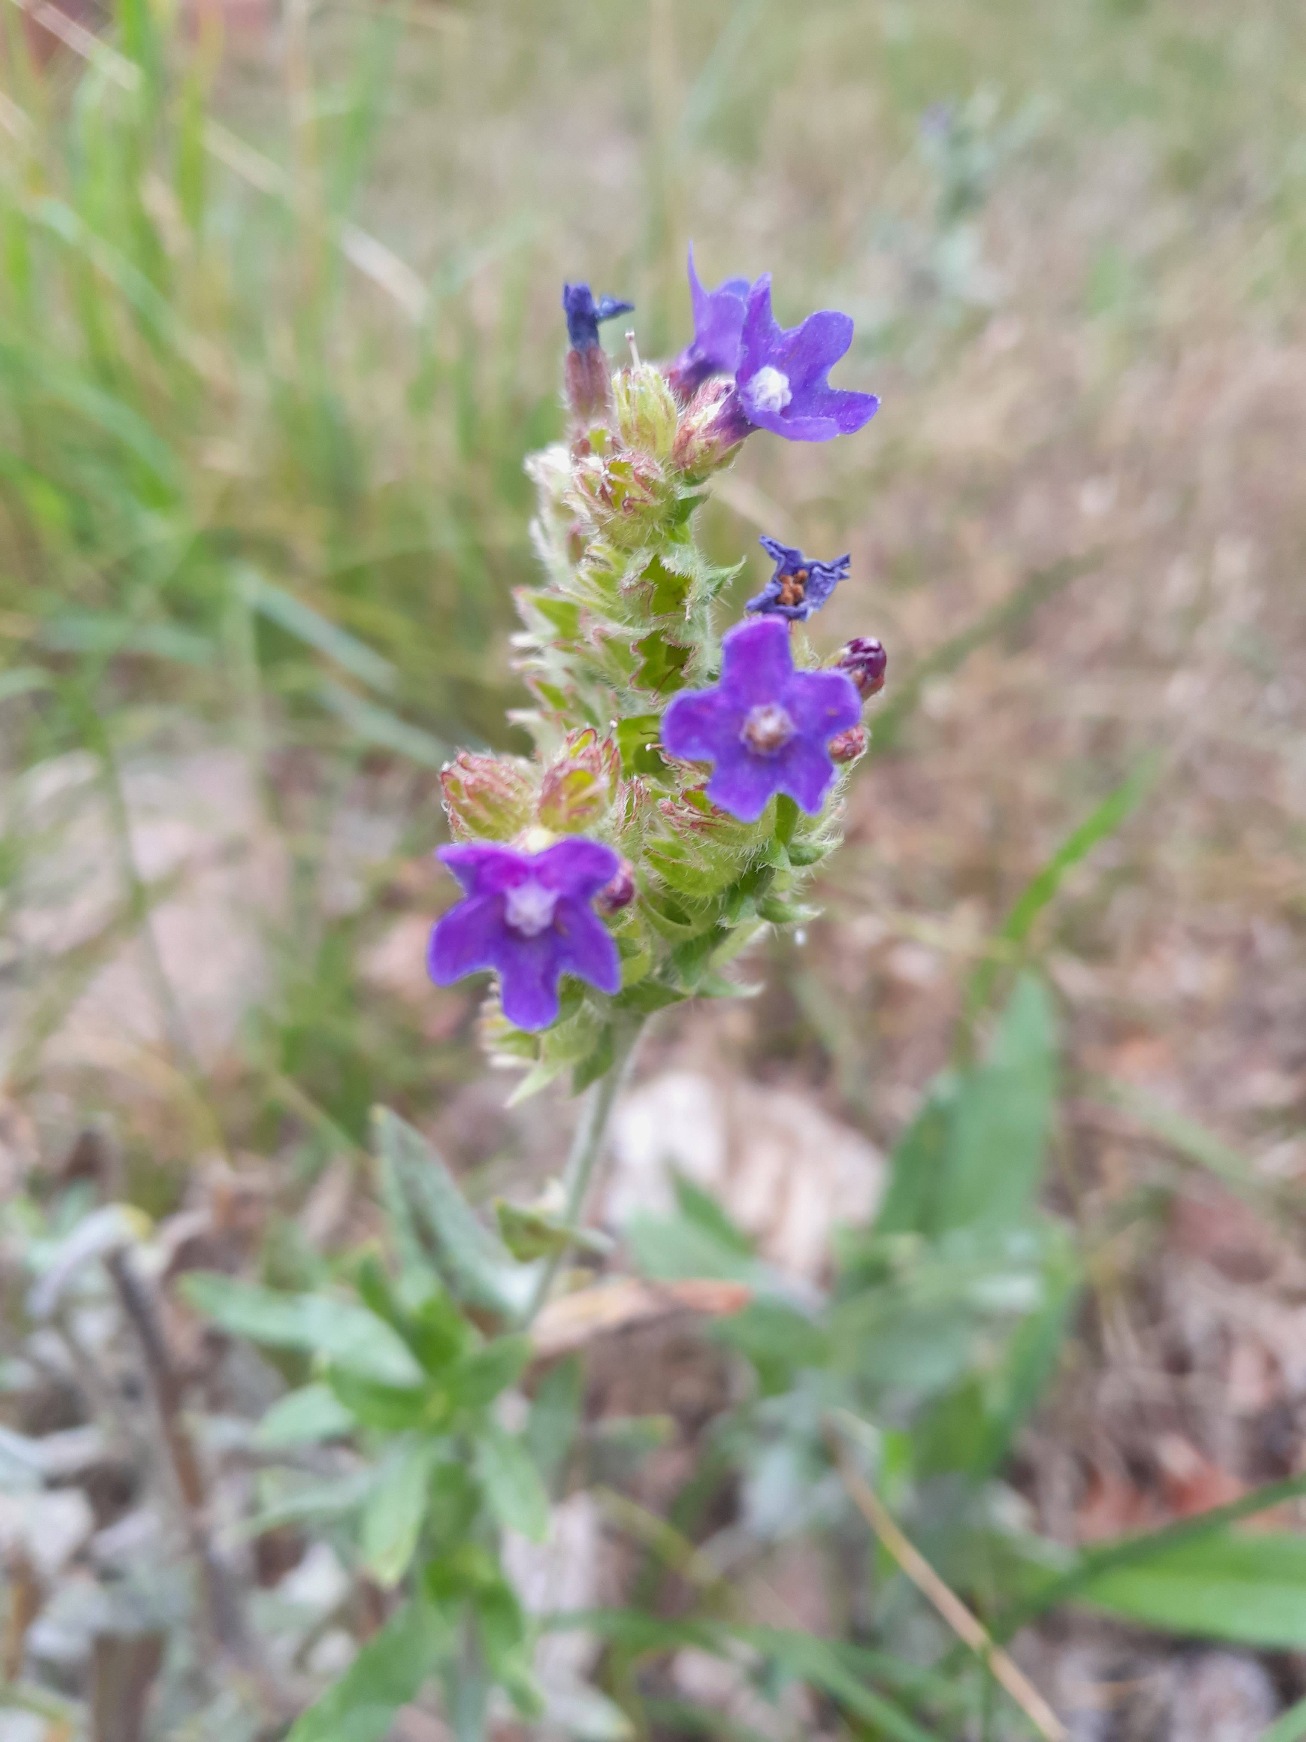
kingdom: Plantae
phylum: Tracheophyta
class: Magnoliopsida
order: Boraginales
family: Boraginaceae
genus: Anchusa
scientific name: Anchusa officinalis
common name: Læge-oksetunge
